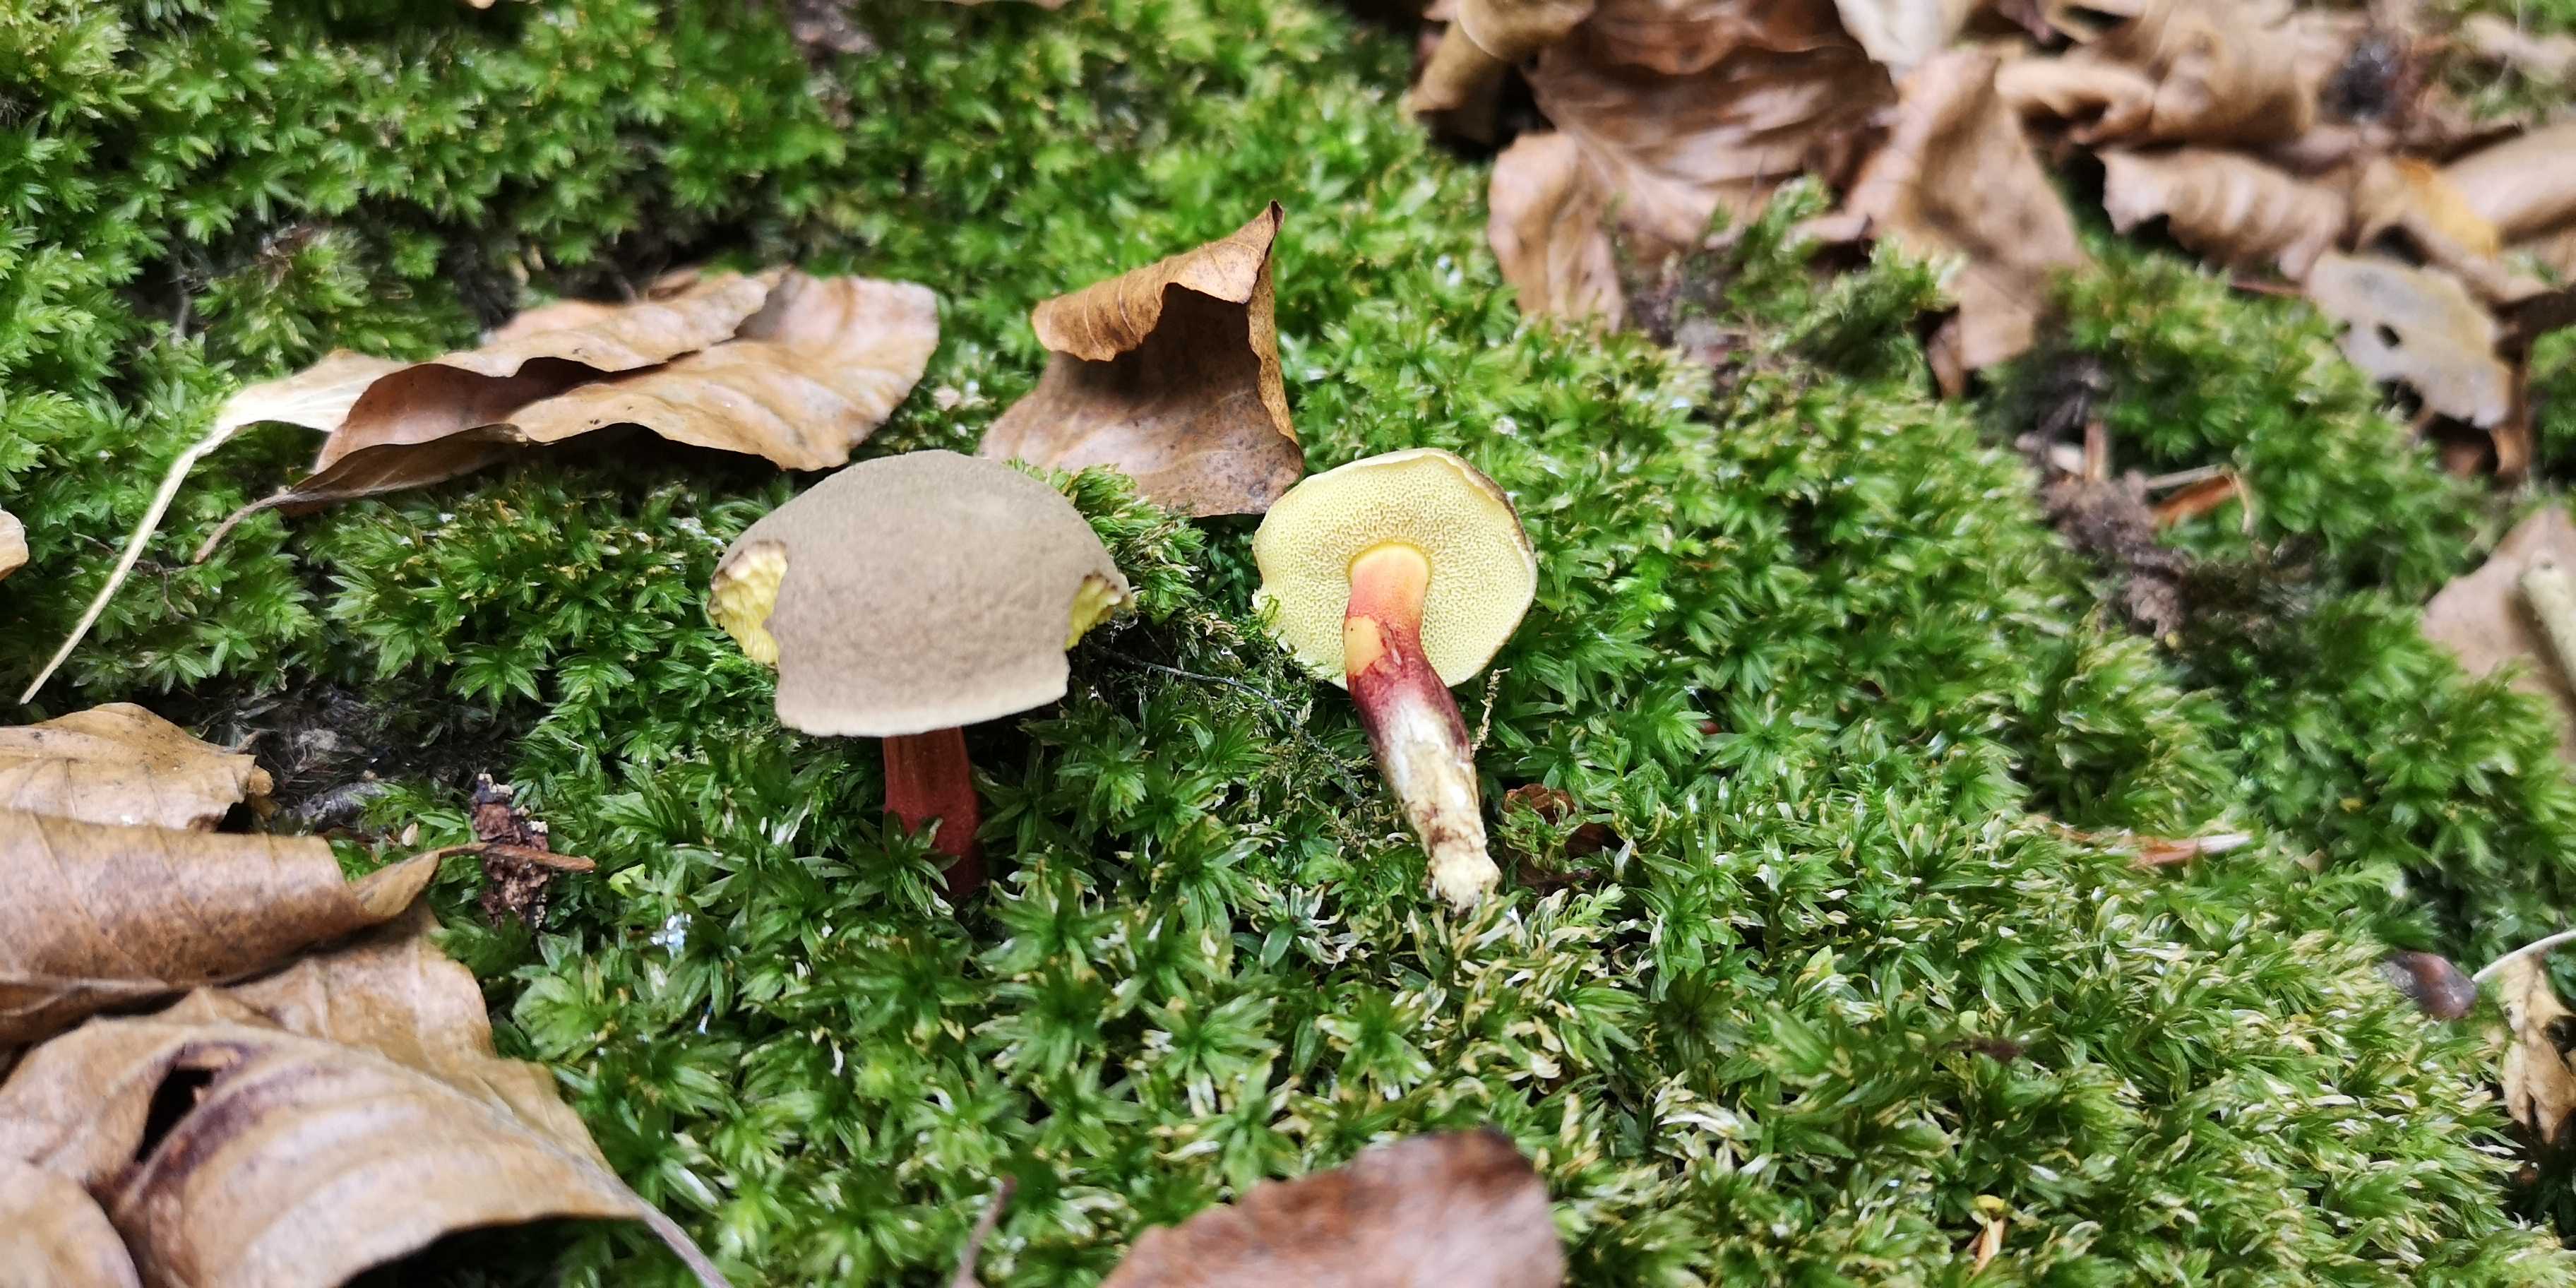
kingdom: Fungi
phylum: Basidiomycota
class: Agaricomycetes
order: Boletales
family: Boletaceae
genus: Xerocomellus
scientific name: Xerocomellus pruinatus
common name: dugget rørhat
